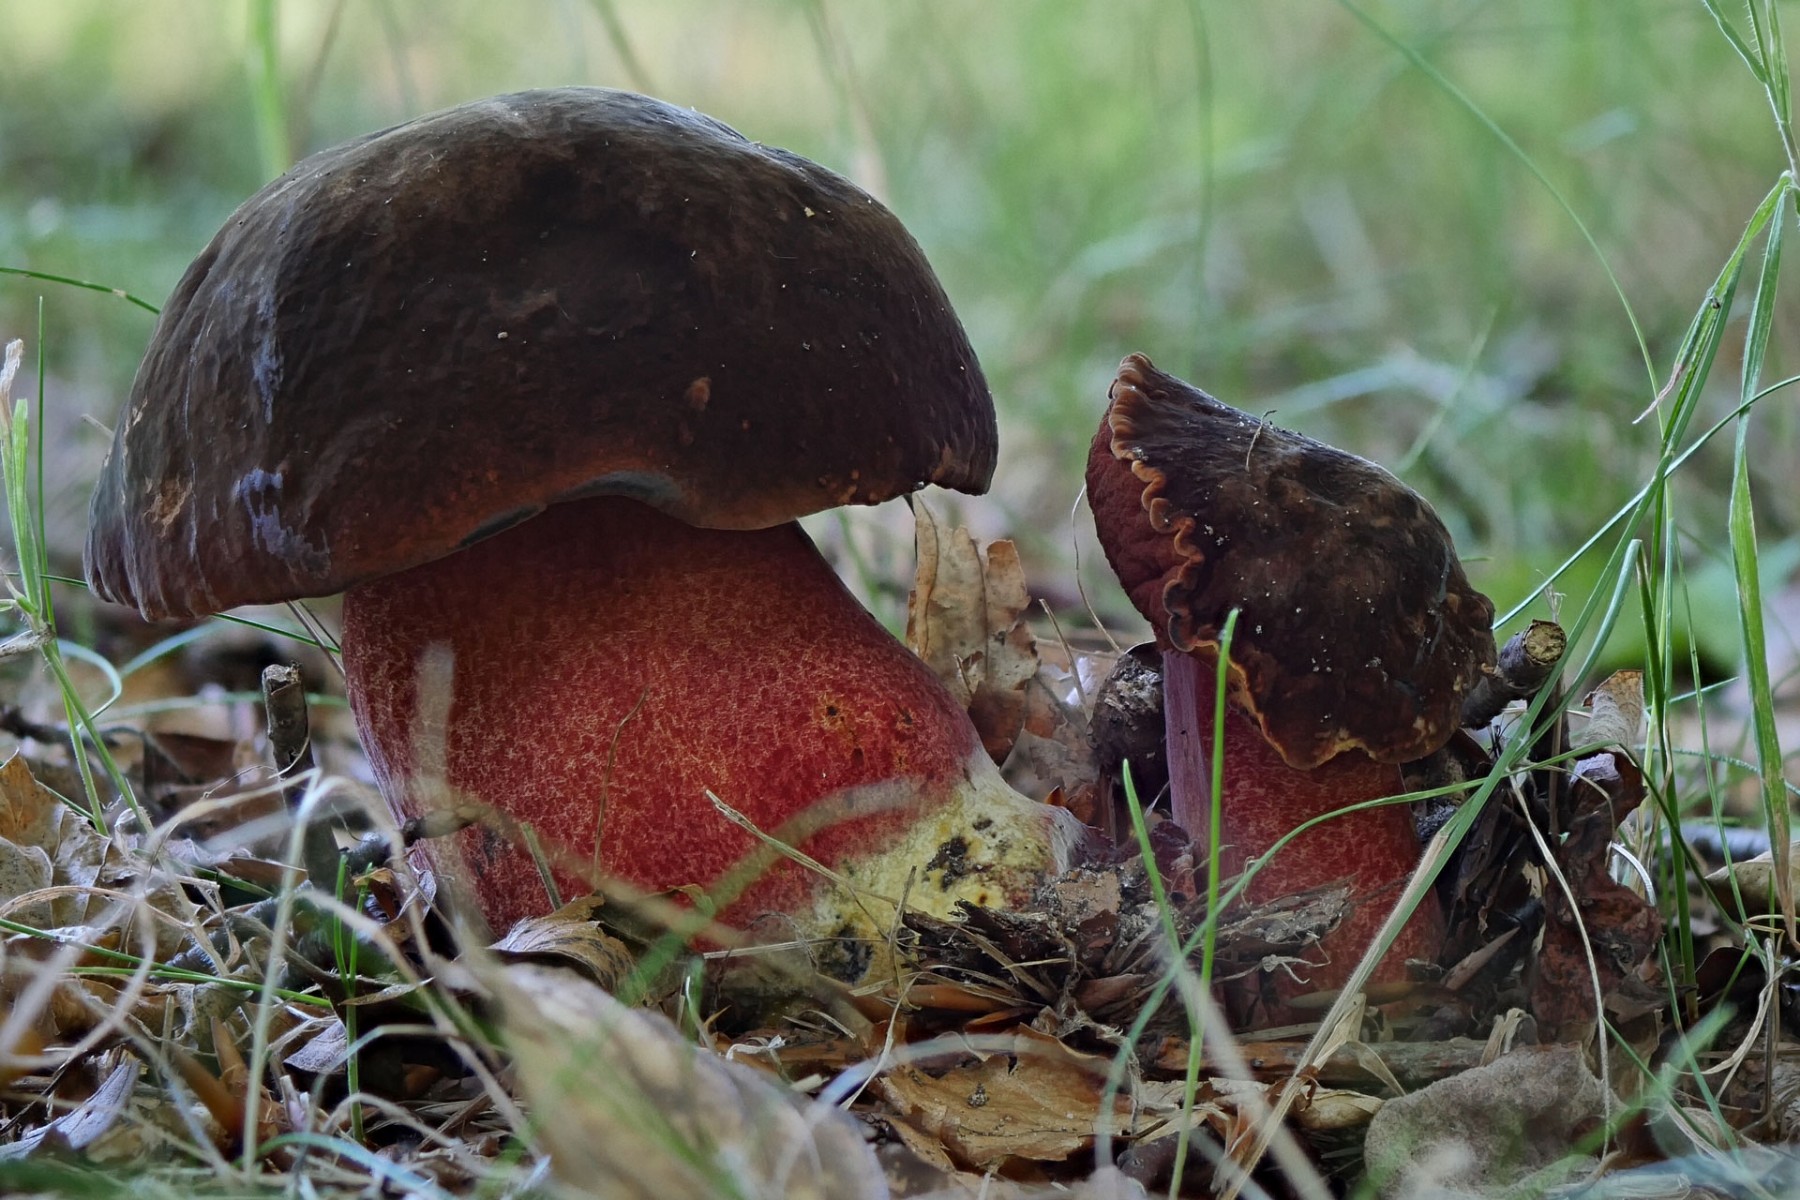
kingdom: Fungi
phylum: Basidiomycota
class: Agaricomycetes
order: Boletales
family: Boletaceae
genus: Neoboletus
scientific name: Neoboletus erythropus
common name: punktstokket indigorørhat
